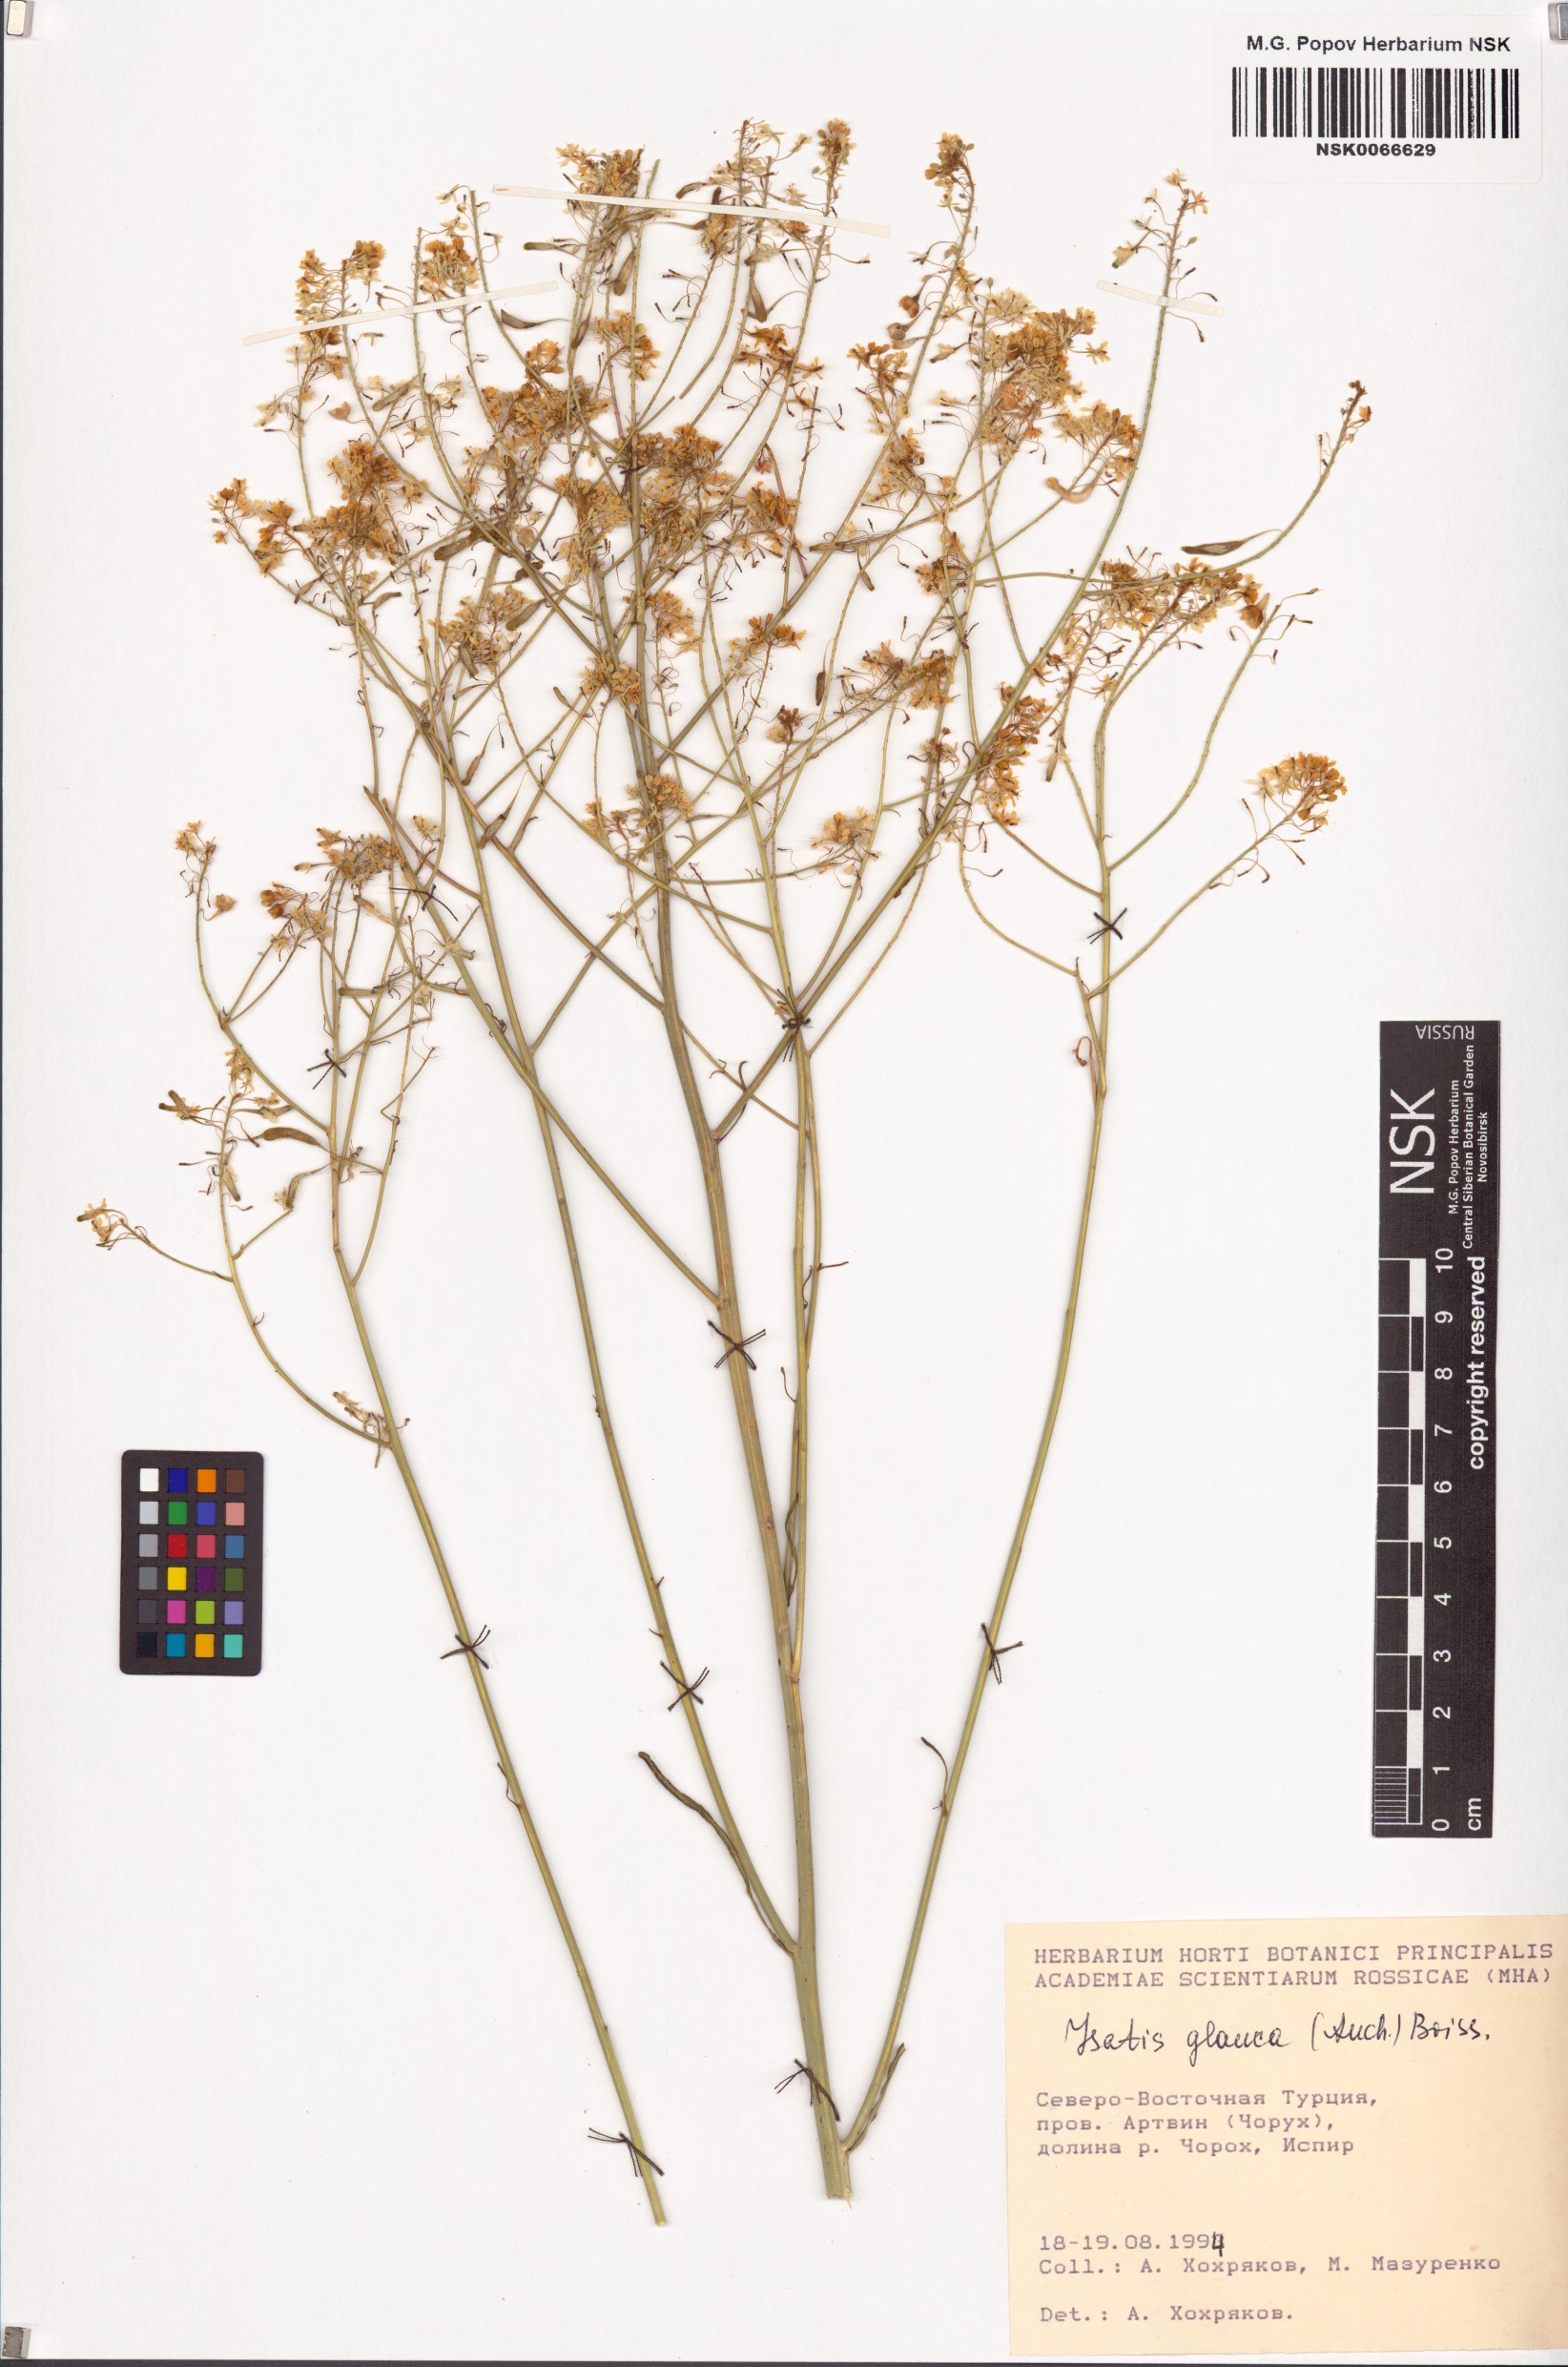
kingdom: Plantae
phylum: Tracheophyta
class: Magnoliopsida
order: Brassicales
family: Brassicaceae
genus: Isatis
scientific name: Isatis glauca
